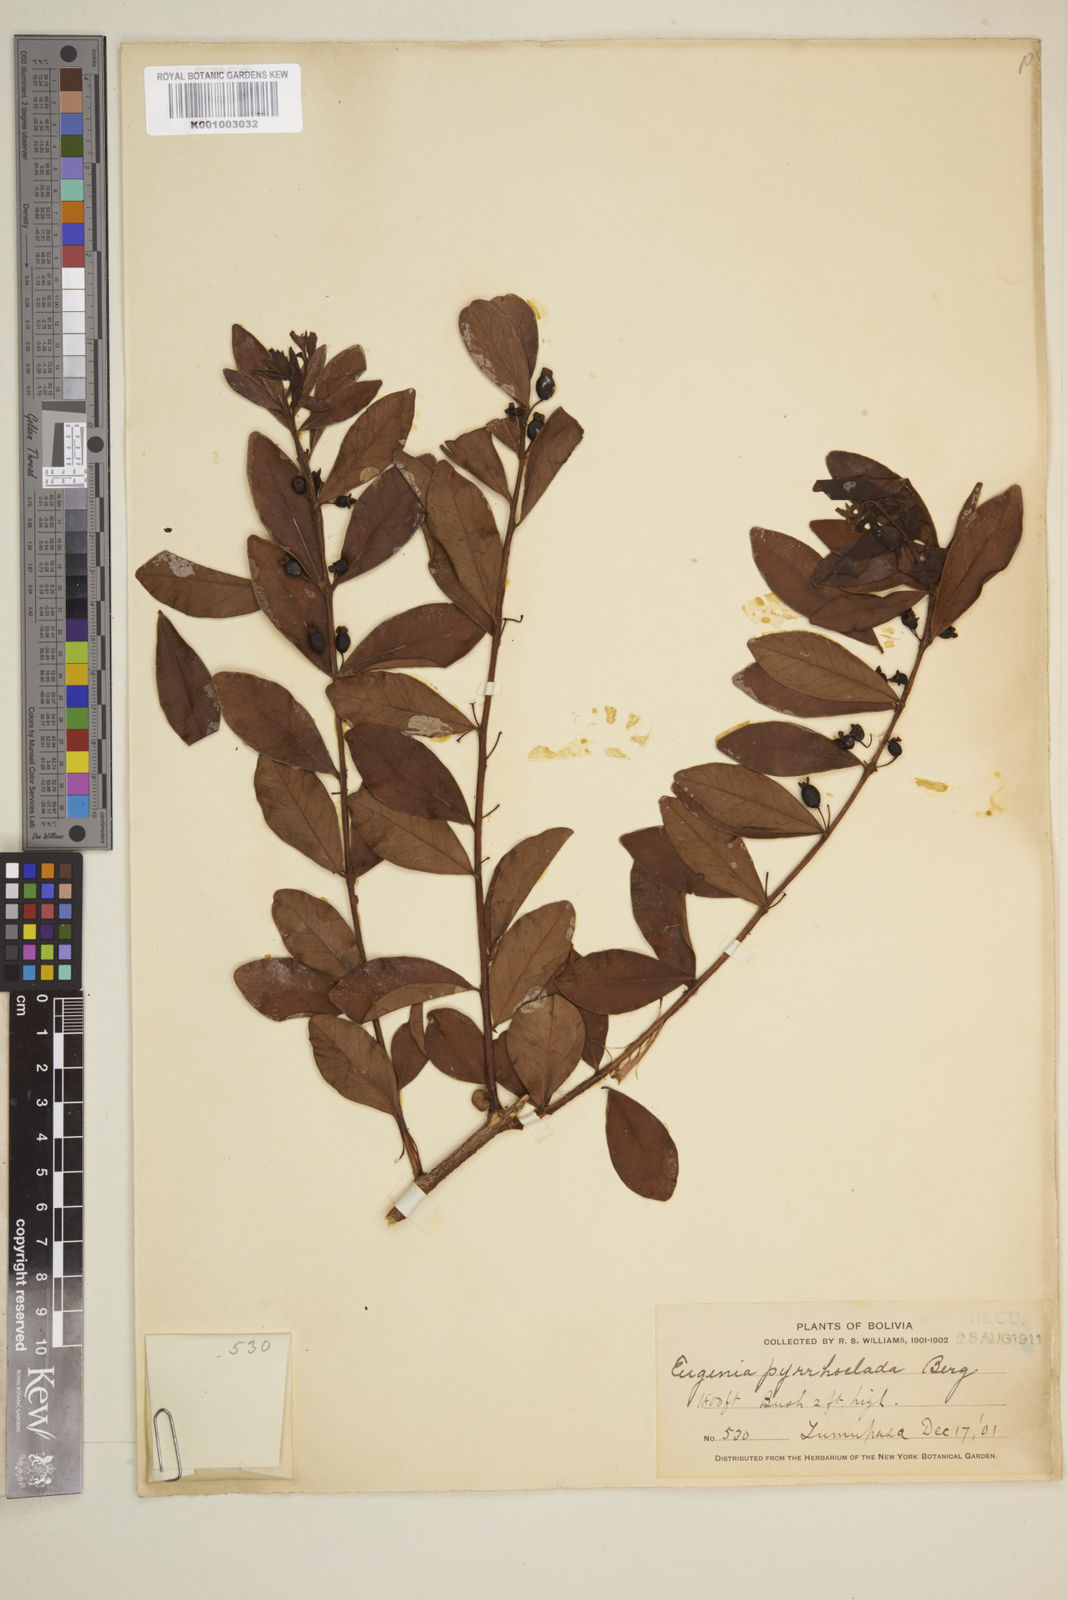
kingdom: Plantae
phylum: Tracheophyta
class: Magnoliopsida
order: Myrtales
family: Myrtaceae
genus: Eugenia
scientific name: Eugenia punicifolia
